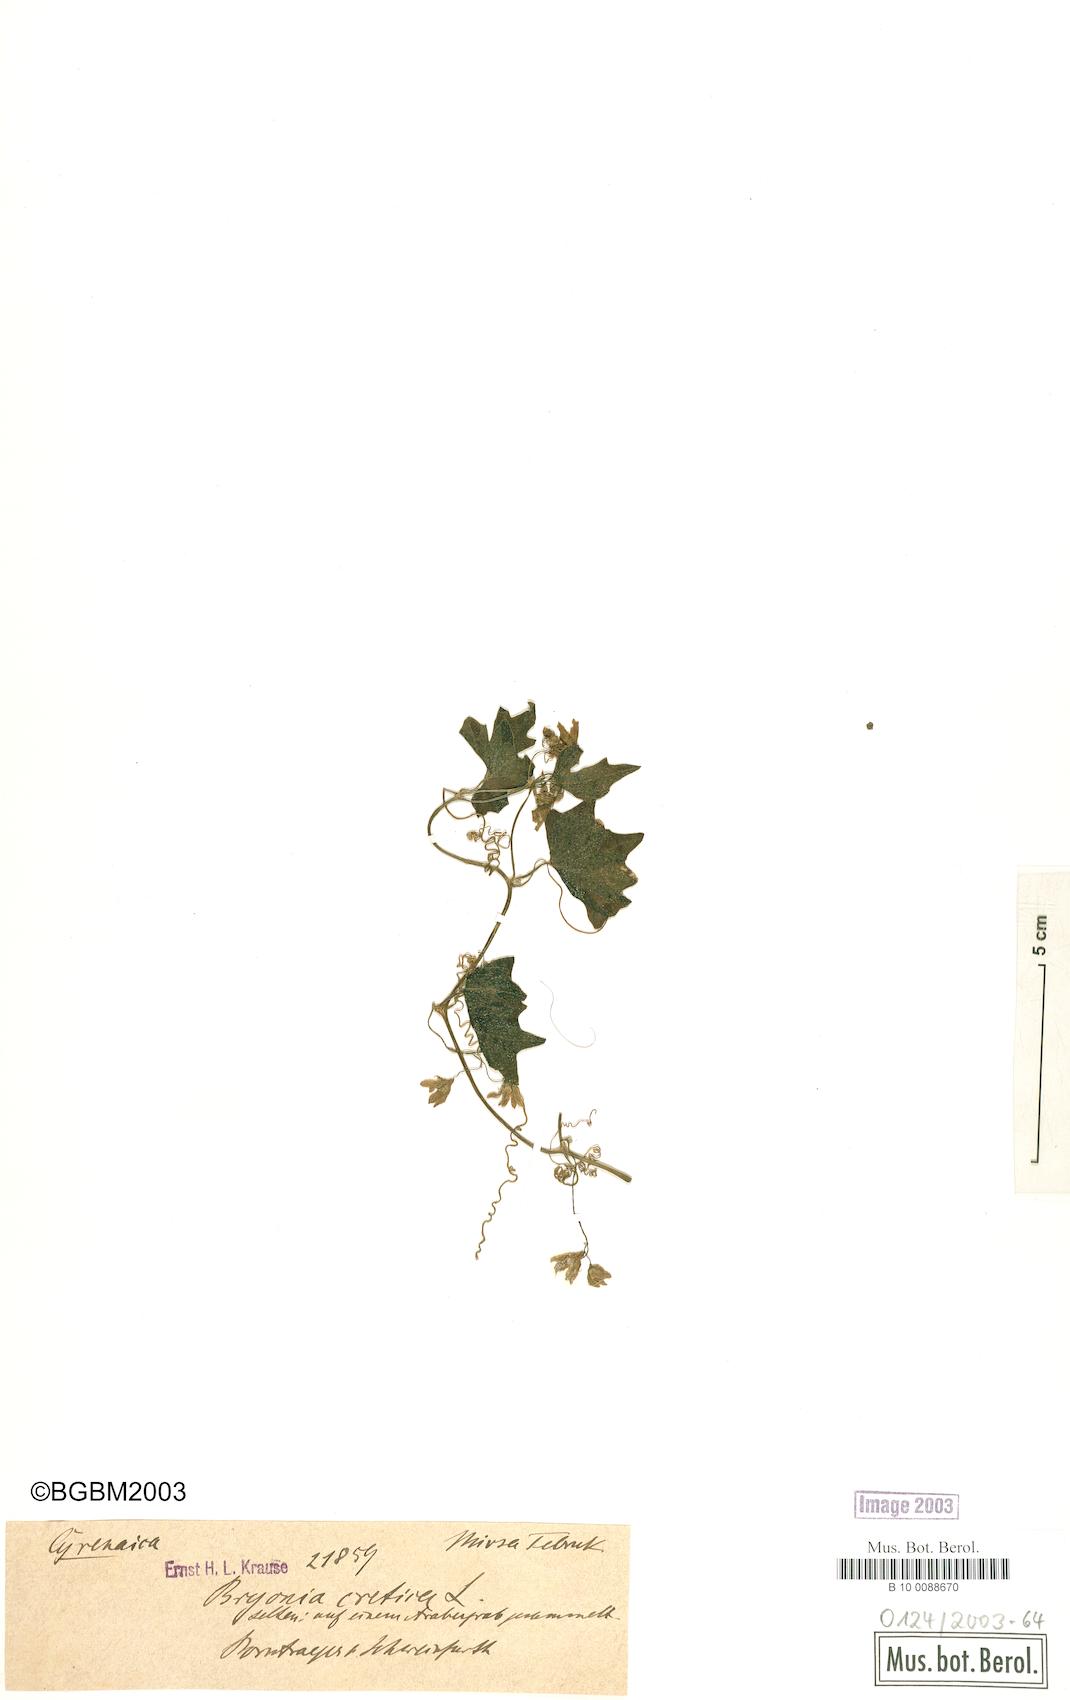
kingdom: Plantae
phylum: Tracheophyta
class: Magnoliopsida
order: Cucurbitales
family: Cucurbitaceae
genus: Bryonia
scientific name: Bryonia cretica
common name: Cretan bryony
